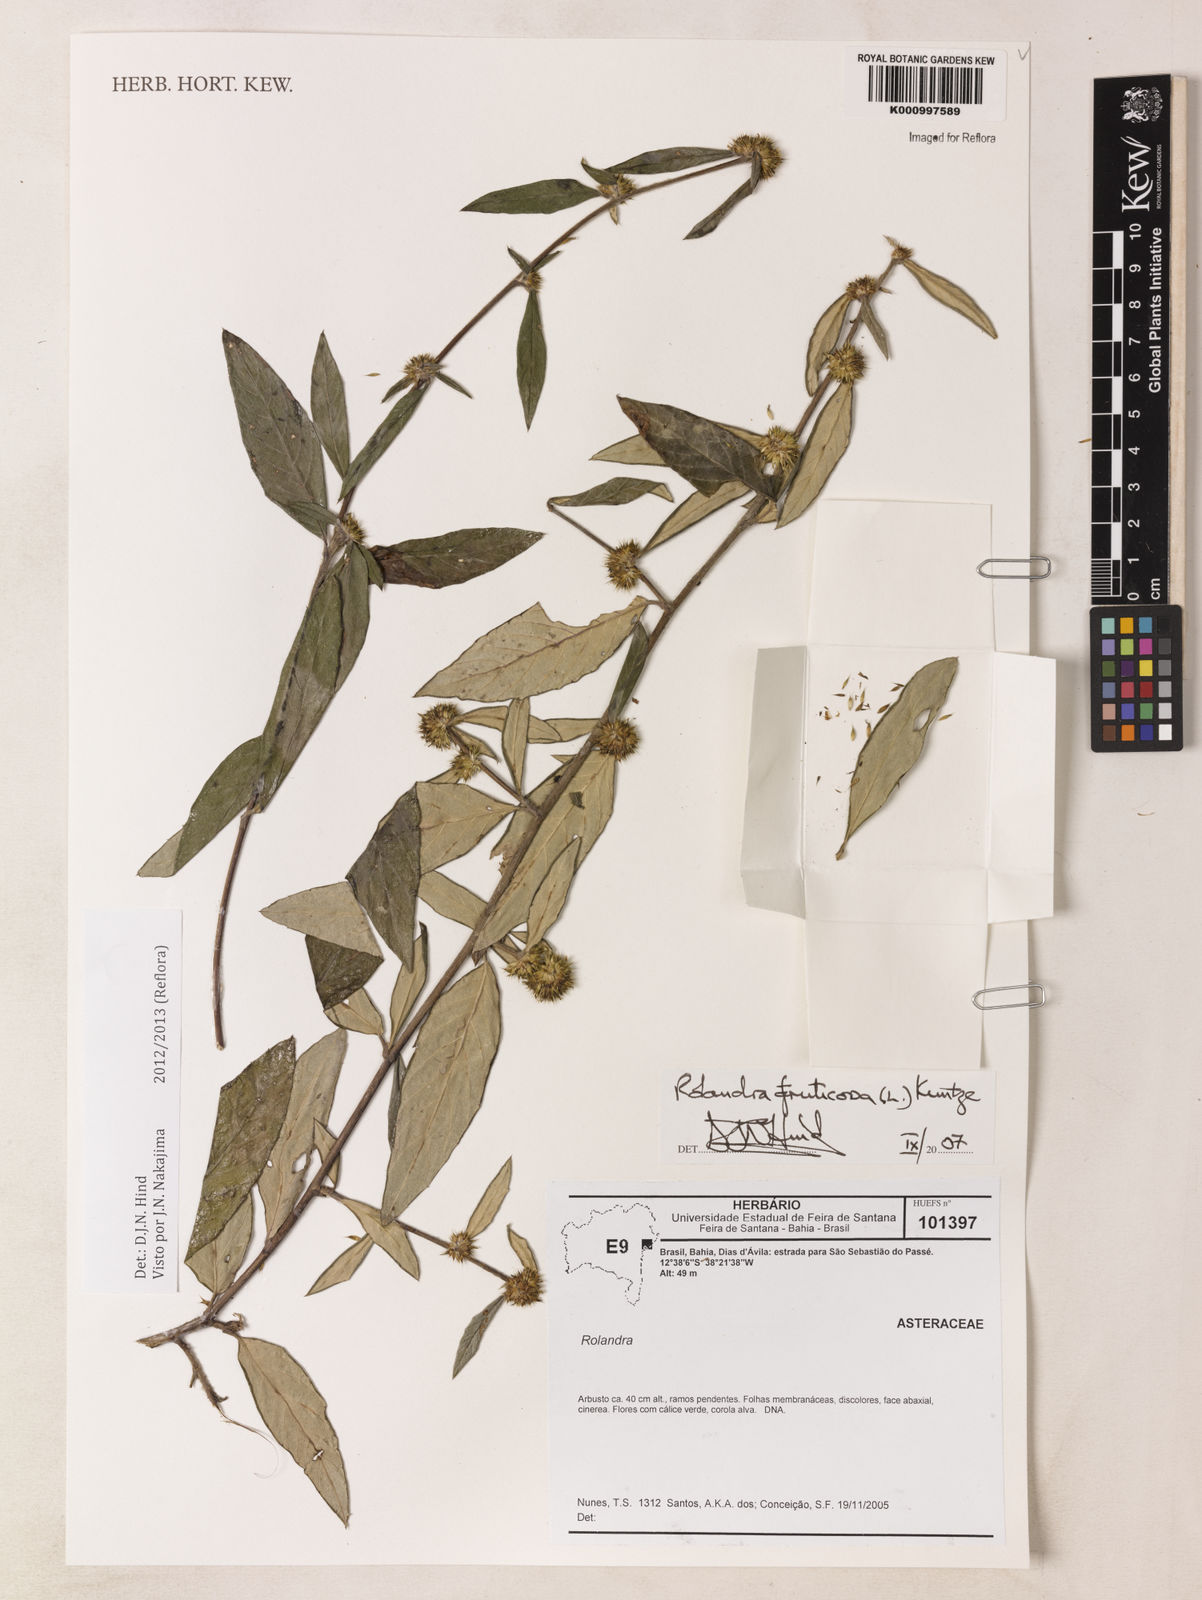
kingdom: Plantae
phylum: Tracheophyta
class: Magnoliopsida
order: Asterales
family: Asteraceae
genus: Rolandra
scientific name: Rolandra fruticosa
